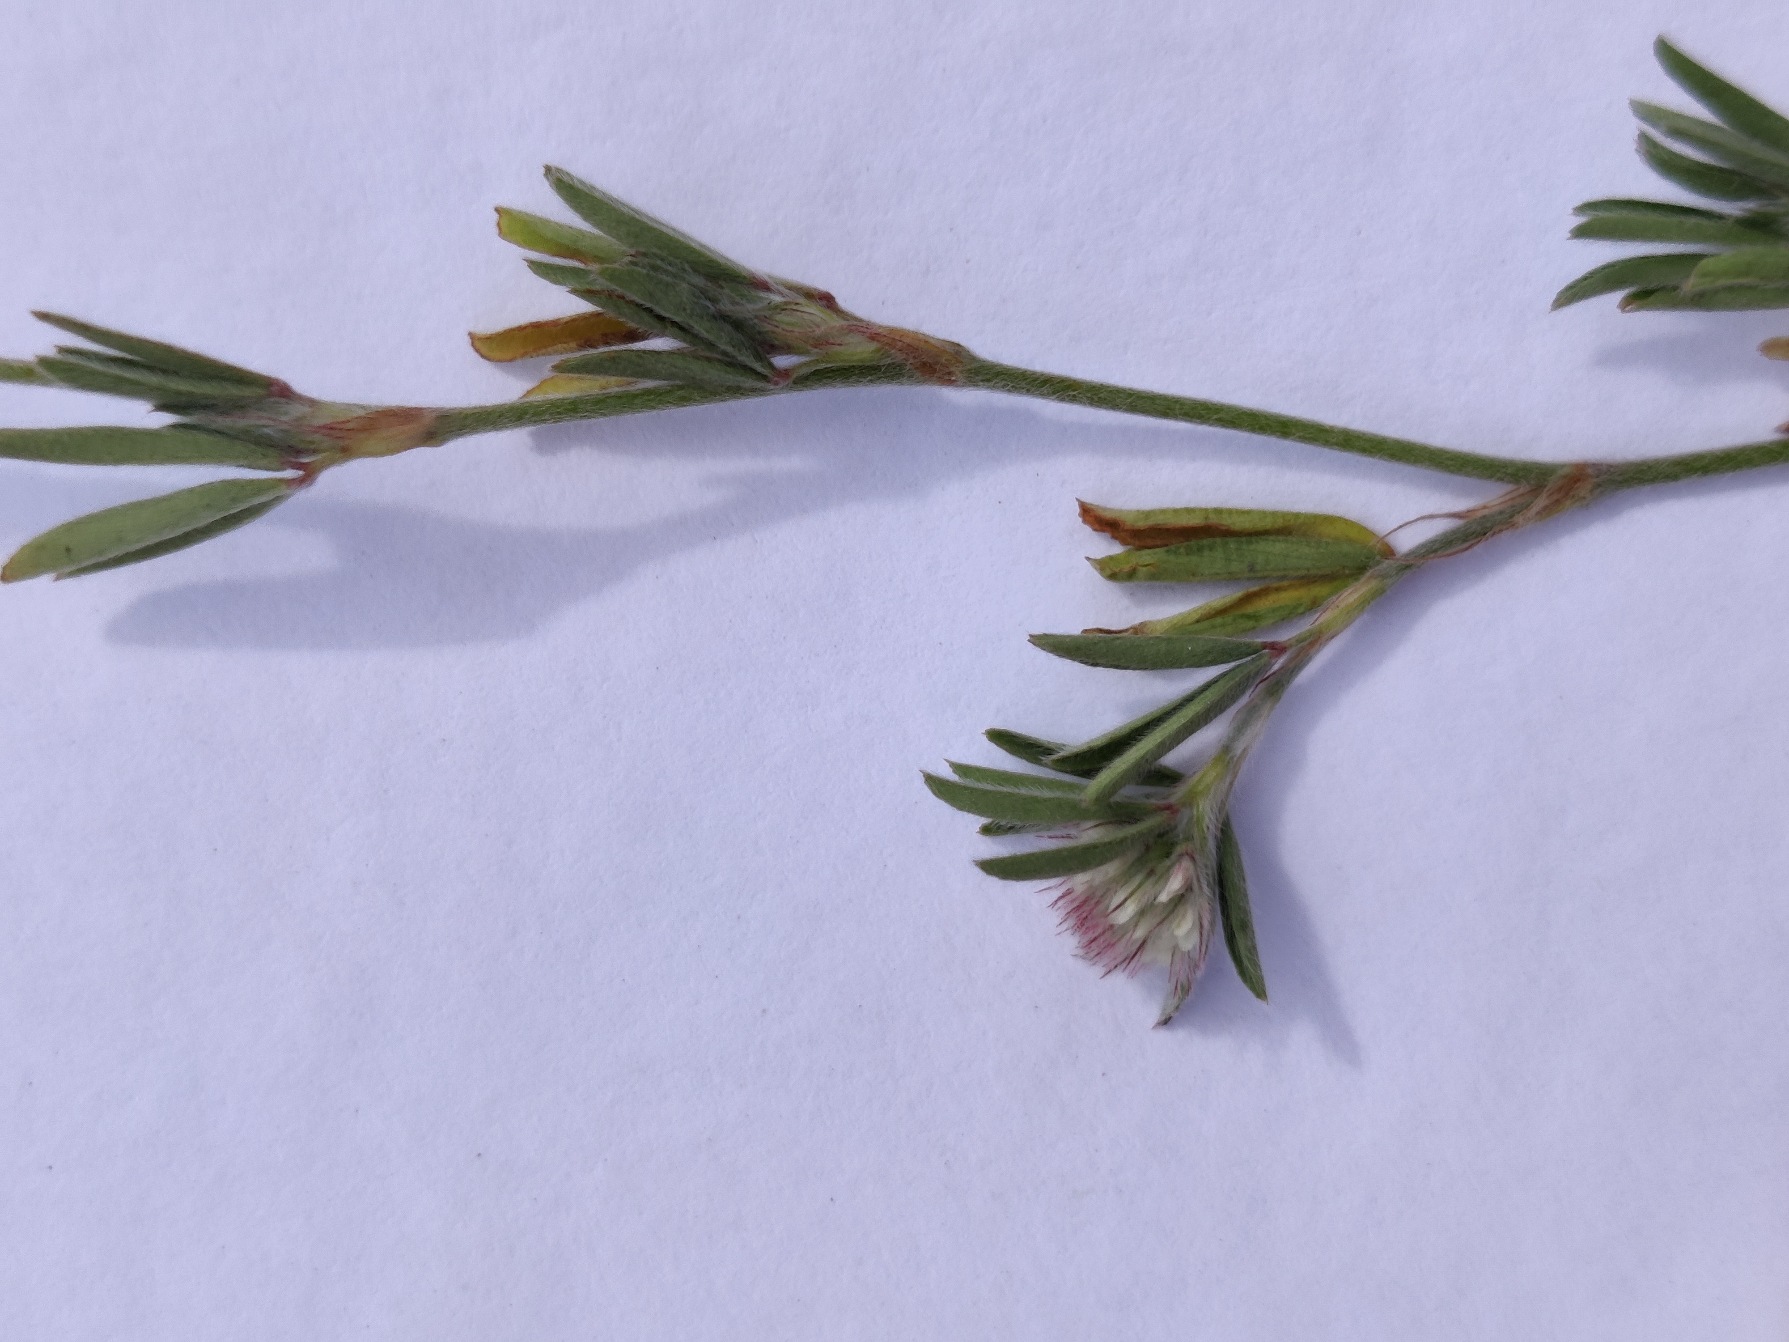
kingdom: Plantae
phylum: Tracheophyta
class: Magnoliopsida
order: Fabales
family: Fabaceae
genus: Trifolium
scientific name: Trifolium arvense
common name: Hare-kløver
